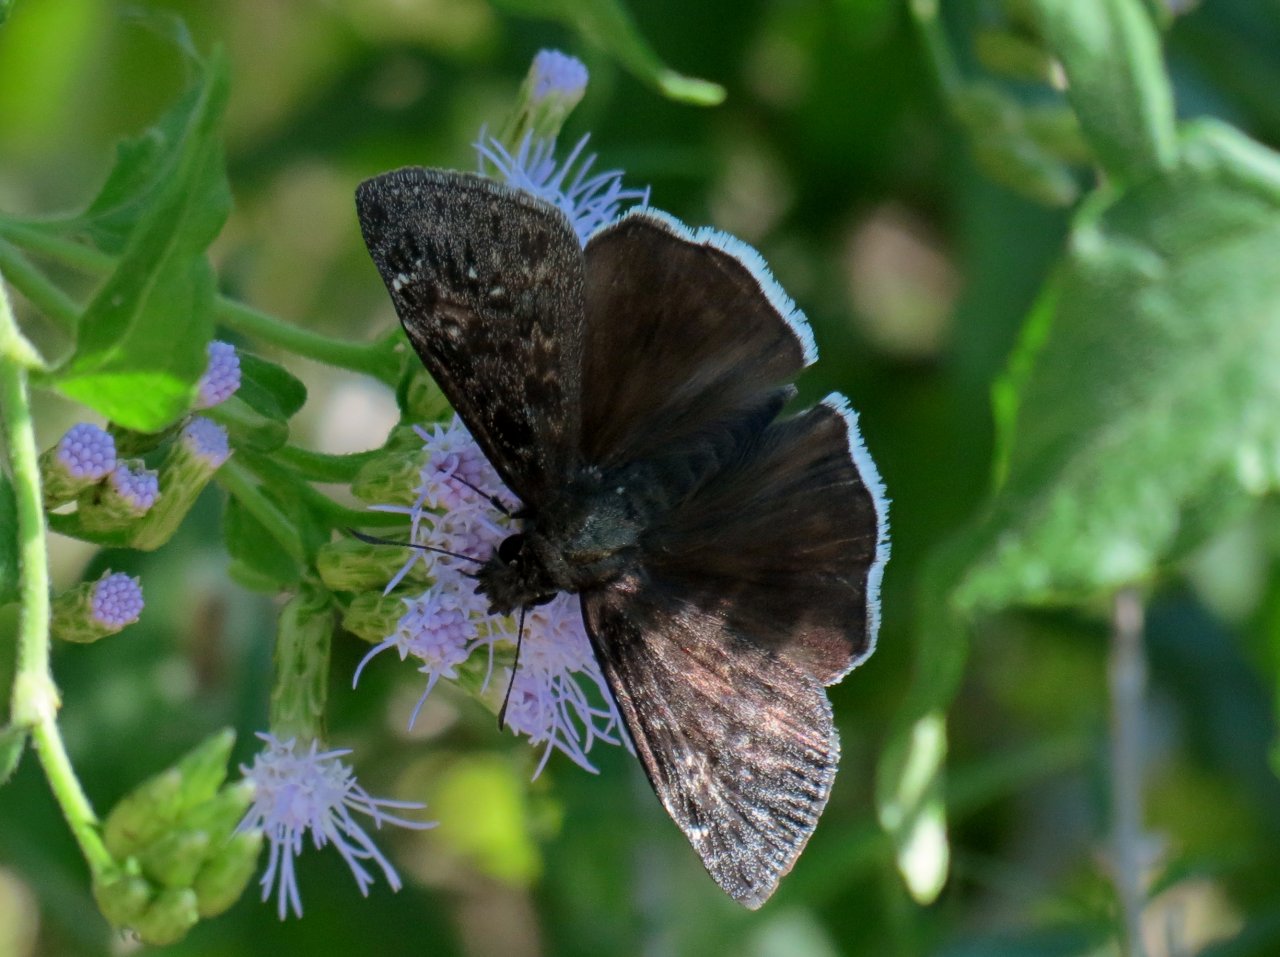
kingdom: Animalia
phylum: Arthropoda
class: Insecta
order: Lepidoptera
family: Hesperiidae
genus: Erynnis
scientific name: Erynnis funeralis
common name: Funereal Duskywing
